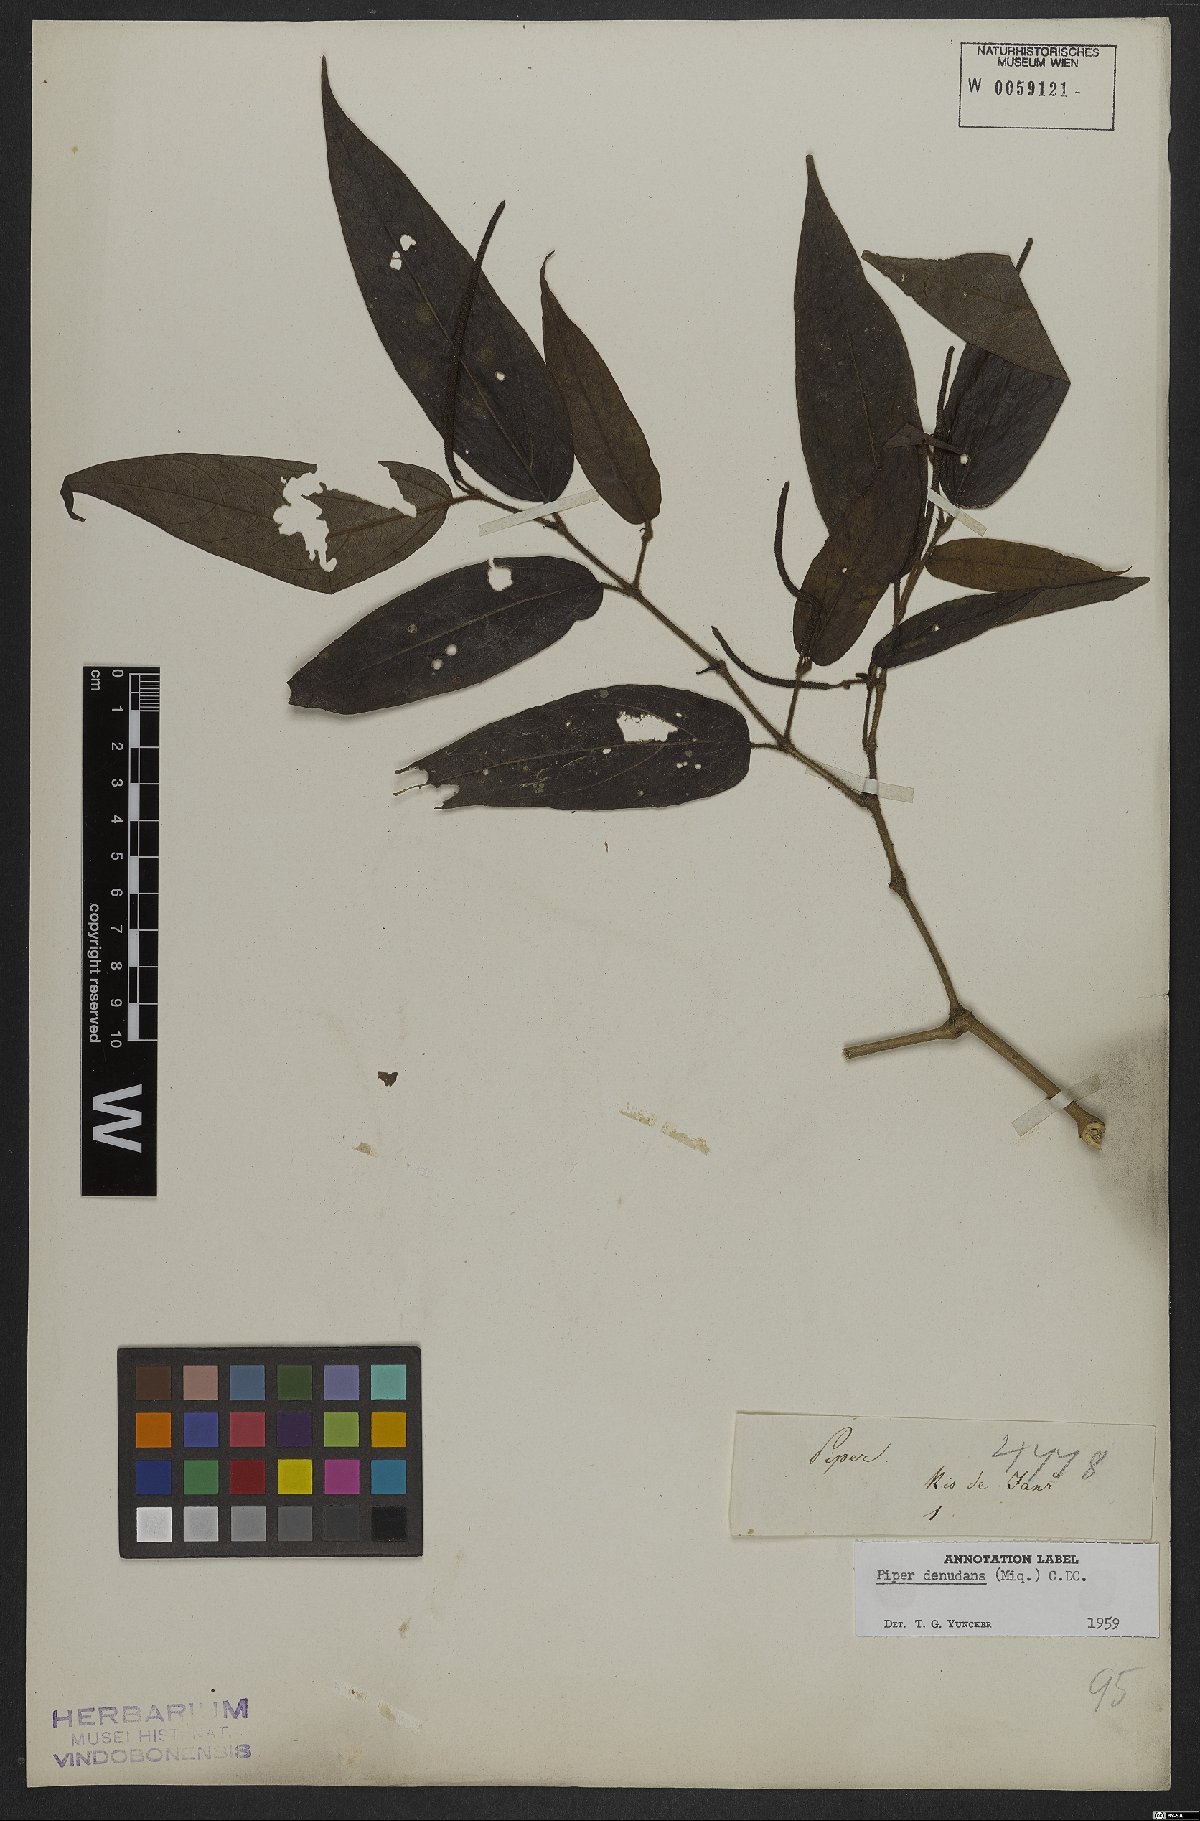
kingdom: Plantae
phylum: Tracheophyta
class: Magnoliopsida
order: Piperales
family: Piperaceae
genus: Piper
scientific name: Piper lepturum
